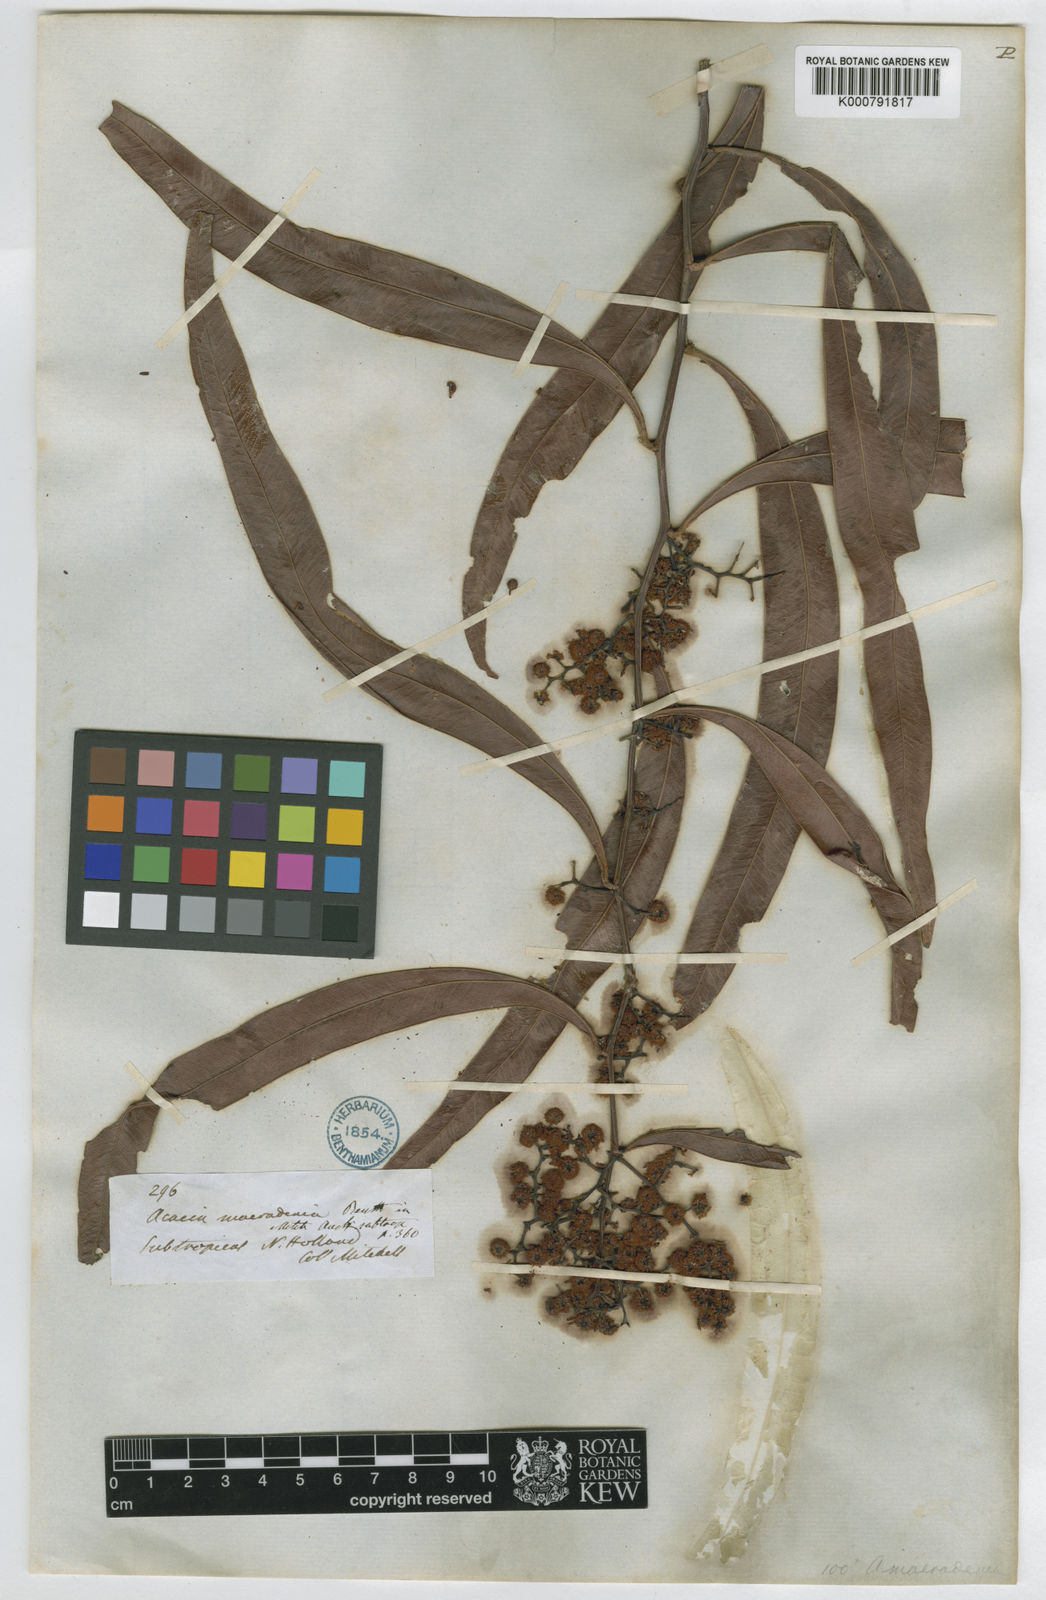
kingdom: Plantae
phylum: Tracheophyta
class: Magnoliopsida
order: Fabales
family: Fabaceae
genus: Acacia
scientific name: Acacia macradenia
